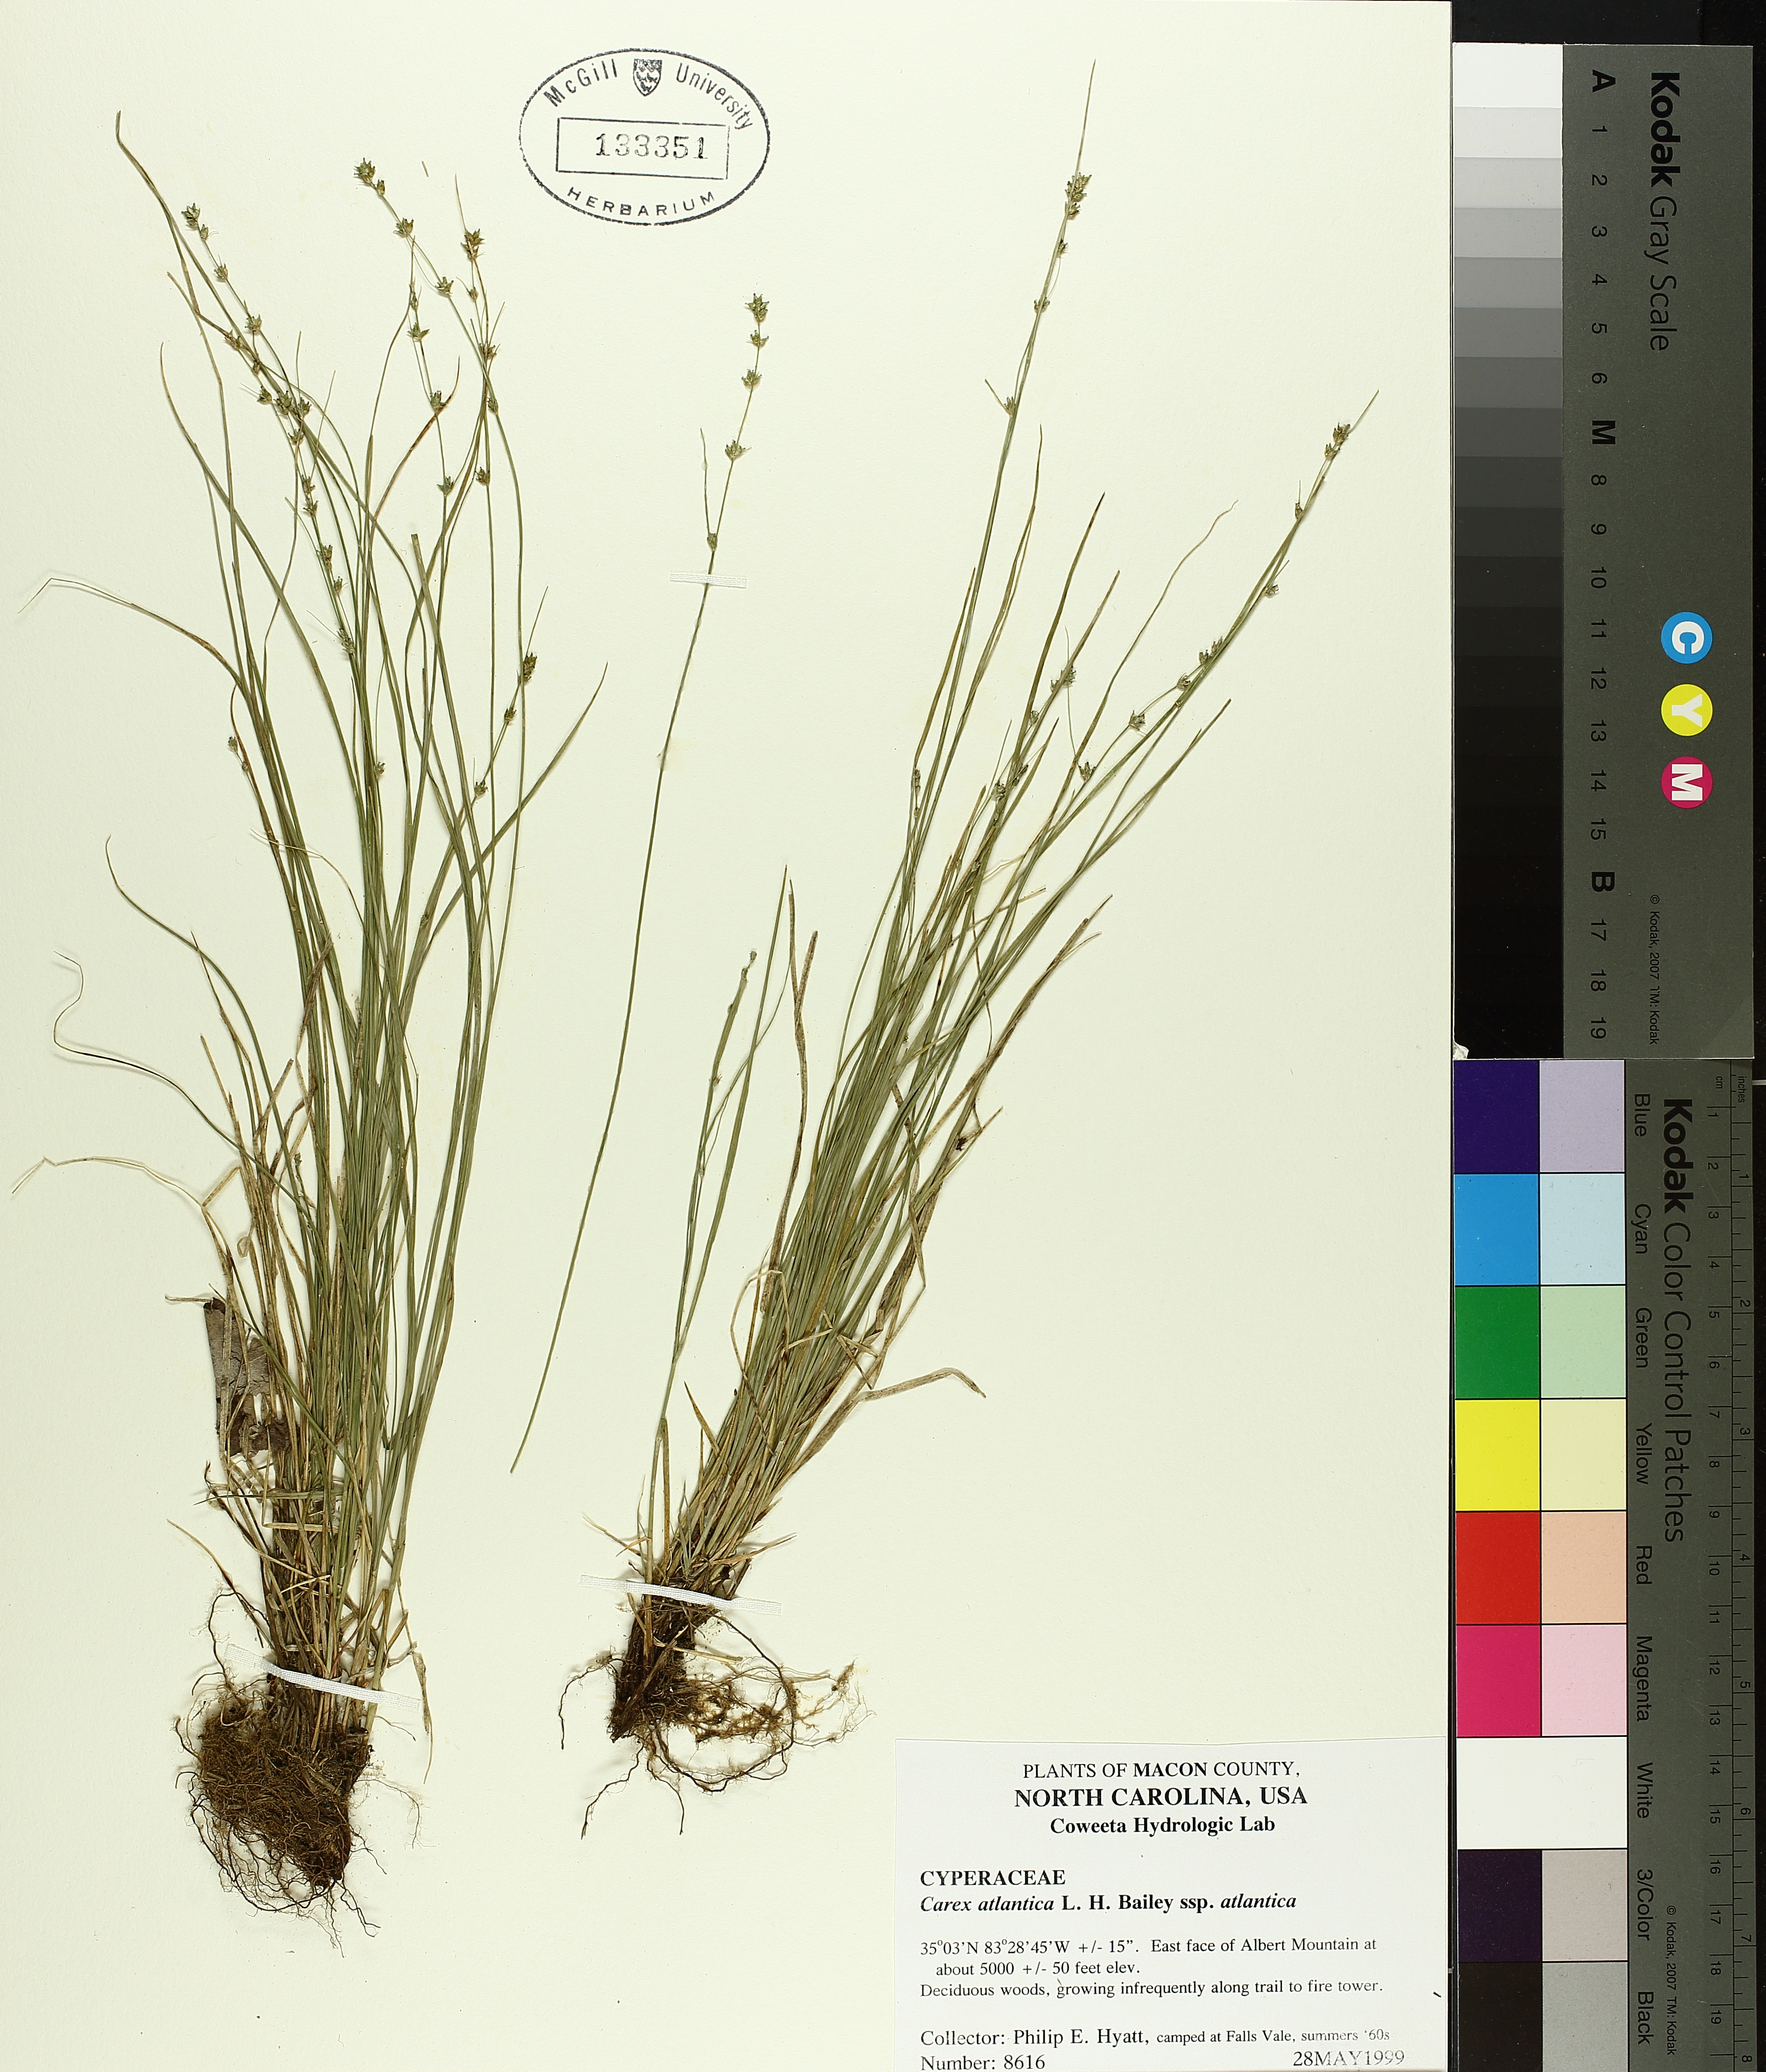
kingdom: Plantae
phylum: Tracheophyta
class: Liliopsida
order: Poales
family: Cyperaceae
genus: Carex
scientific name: Carex atlantica
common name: Atlantic sedge
